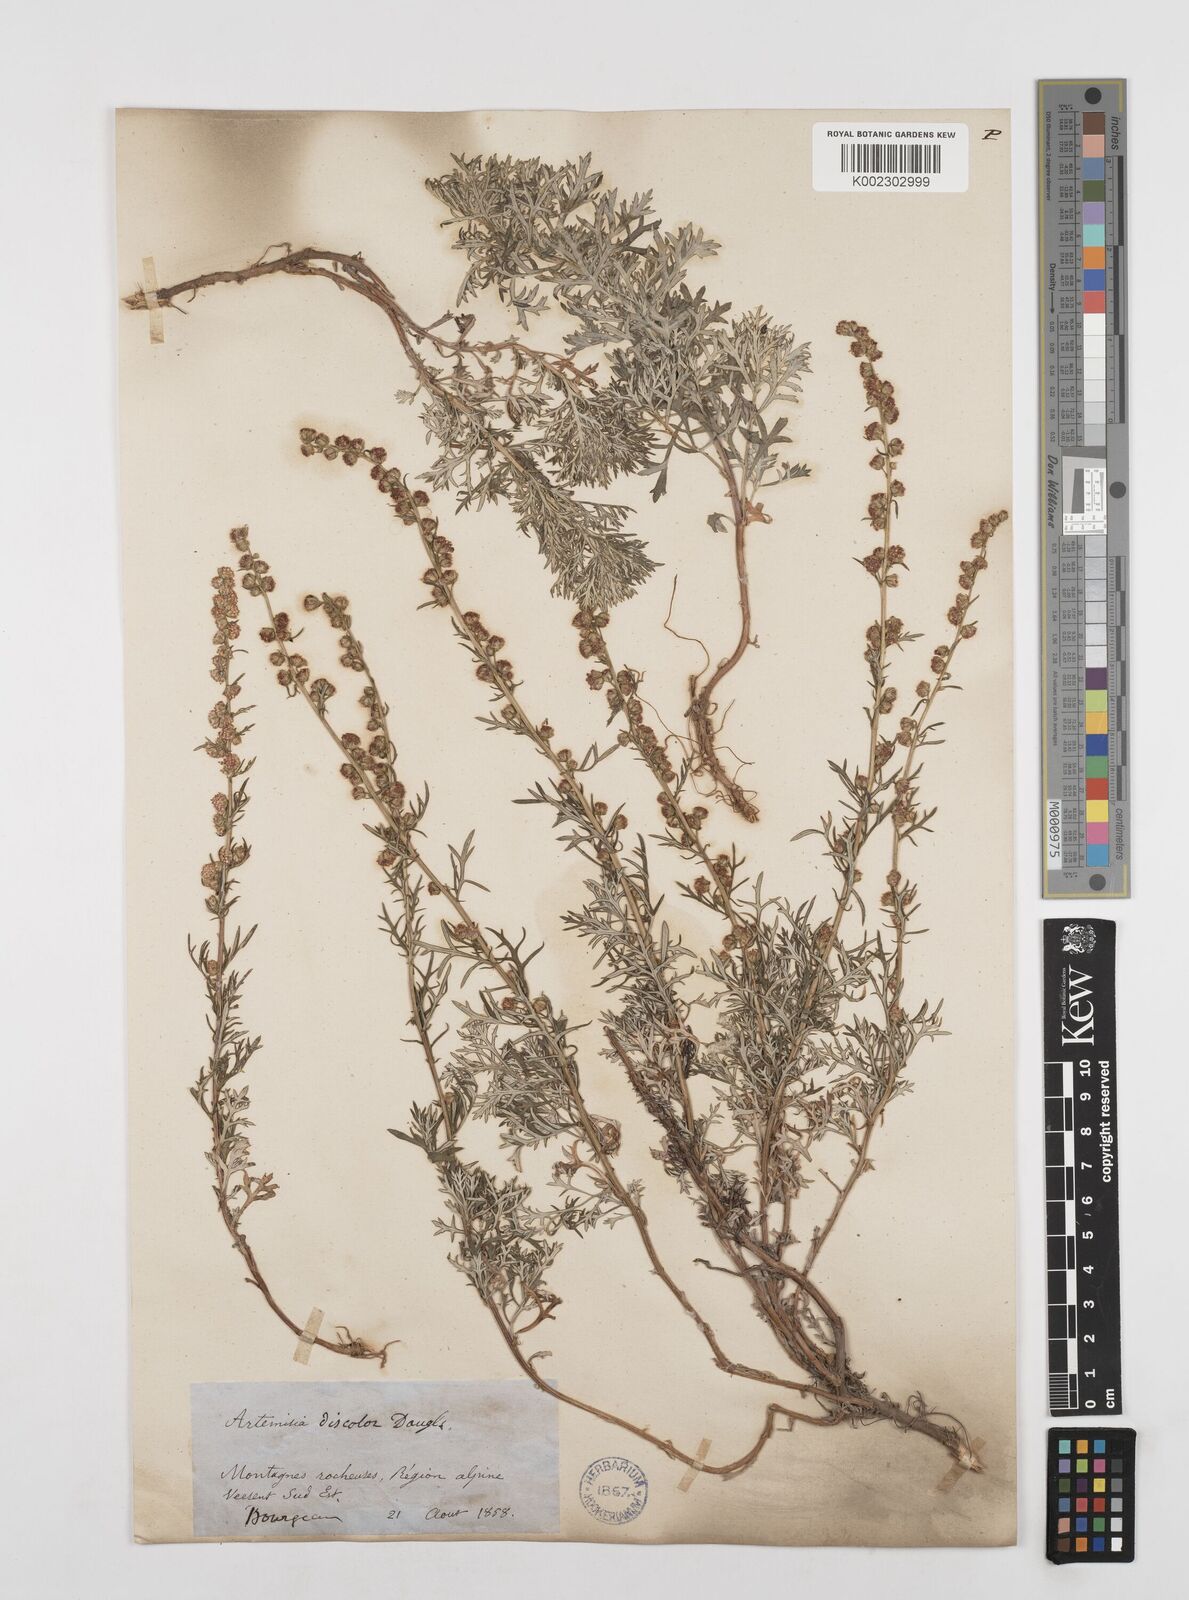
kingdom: Plantae
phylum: Tracheophyta
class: Magnoliopsida
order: Asterales
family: Asteraceae
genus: Artemisia
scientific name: Artemisia michauxiana
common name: Lemon sagewort
